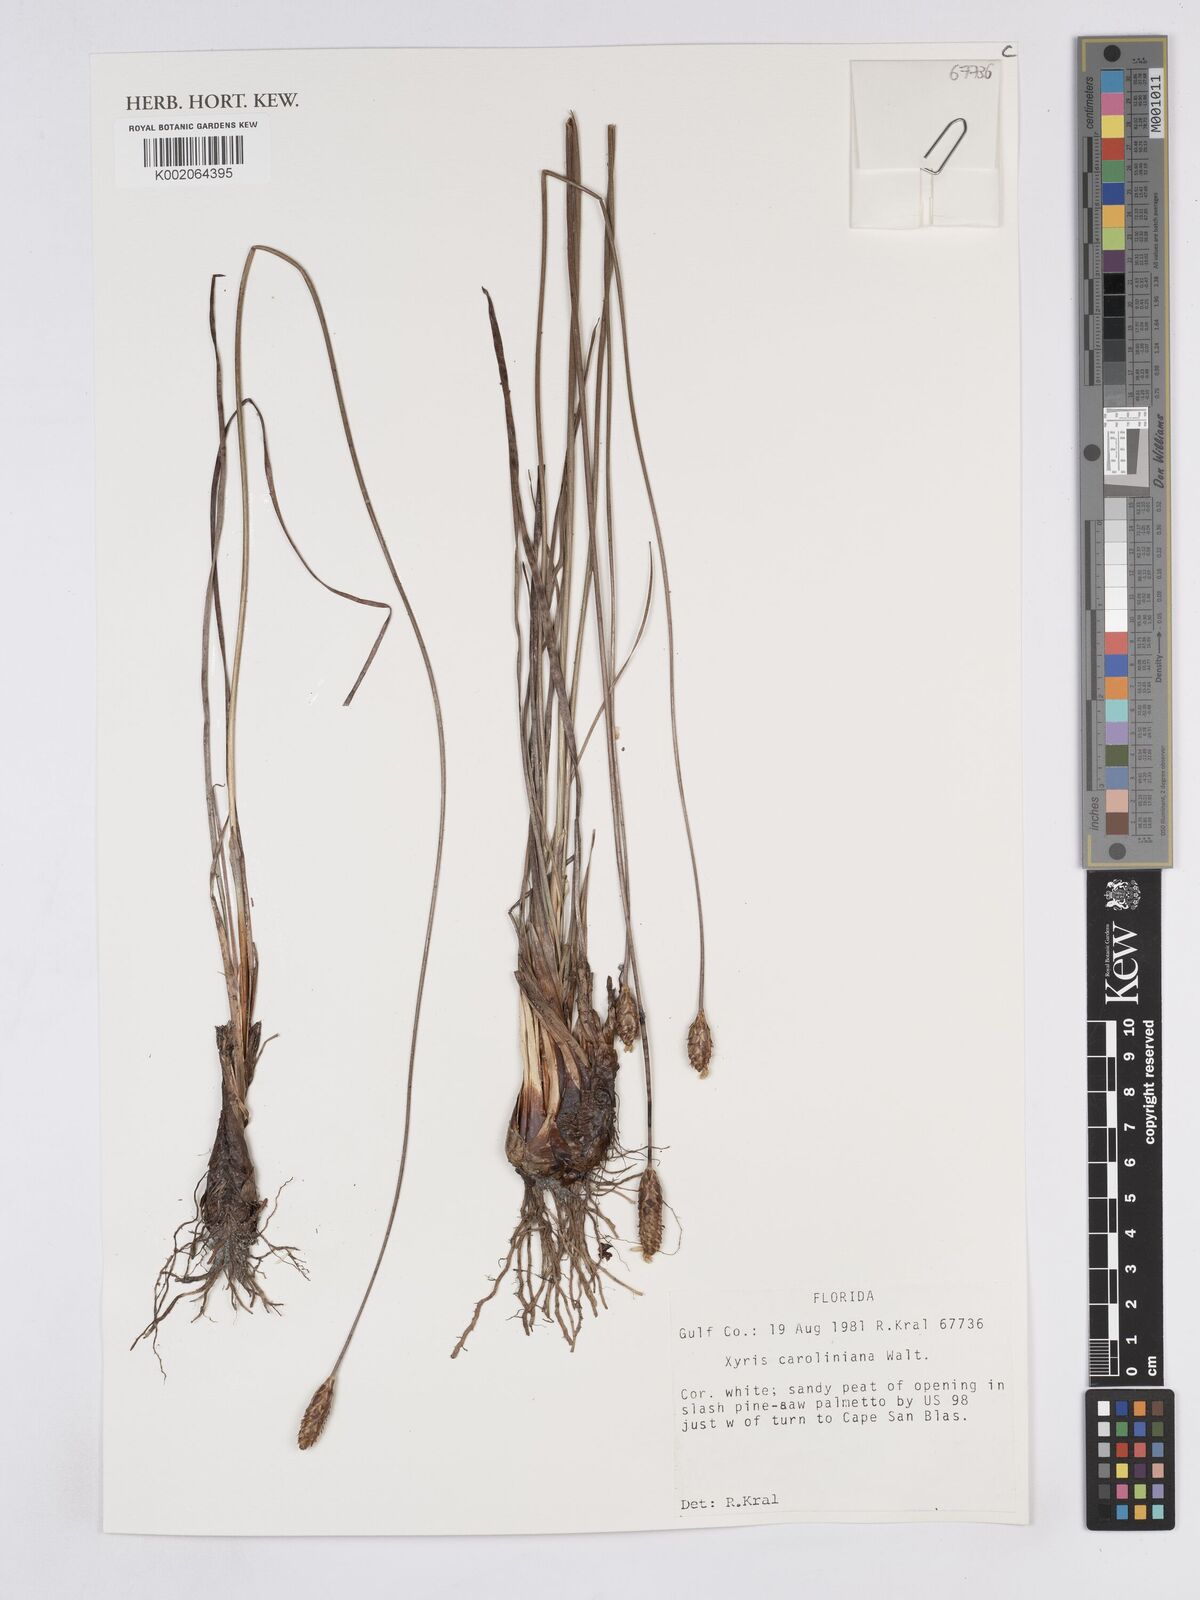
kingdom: Plantae
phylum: Tracheophyta
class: Liliopsida
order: Poales
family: Xyridaceae
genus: Xyris
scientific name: Xyris caroliniana
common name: Carolina yellow-eyed-grass
